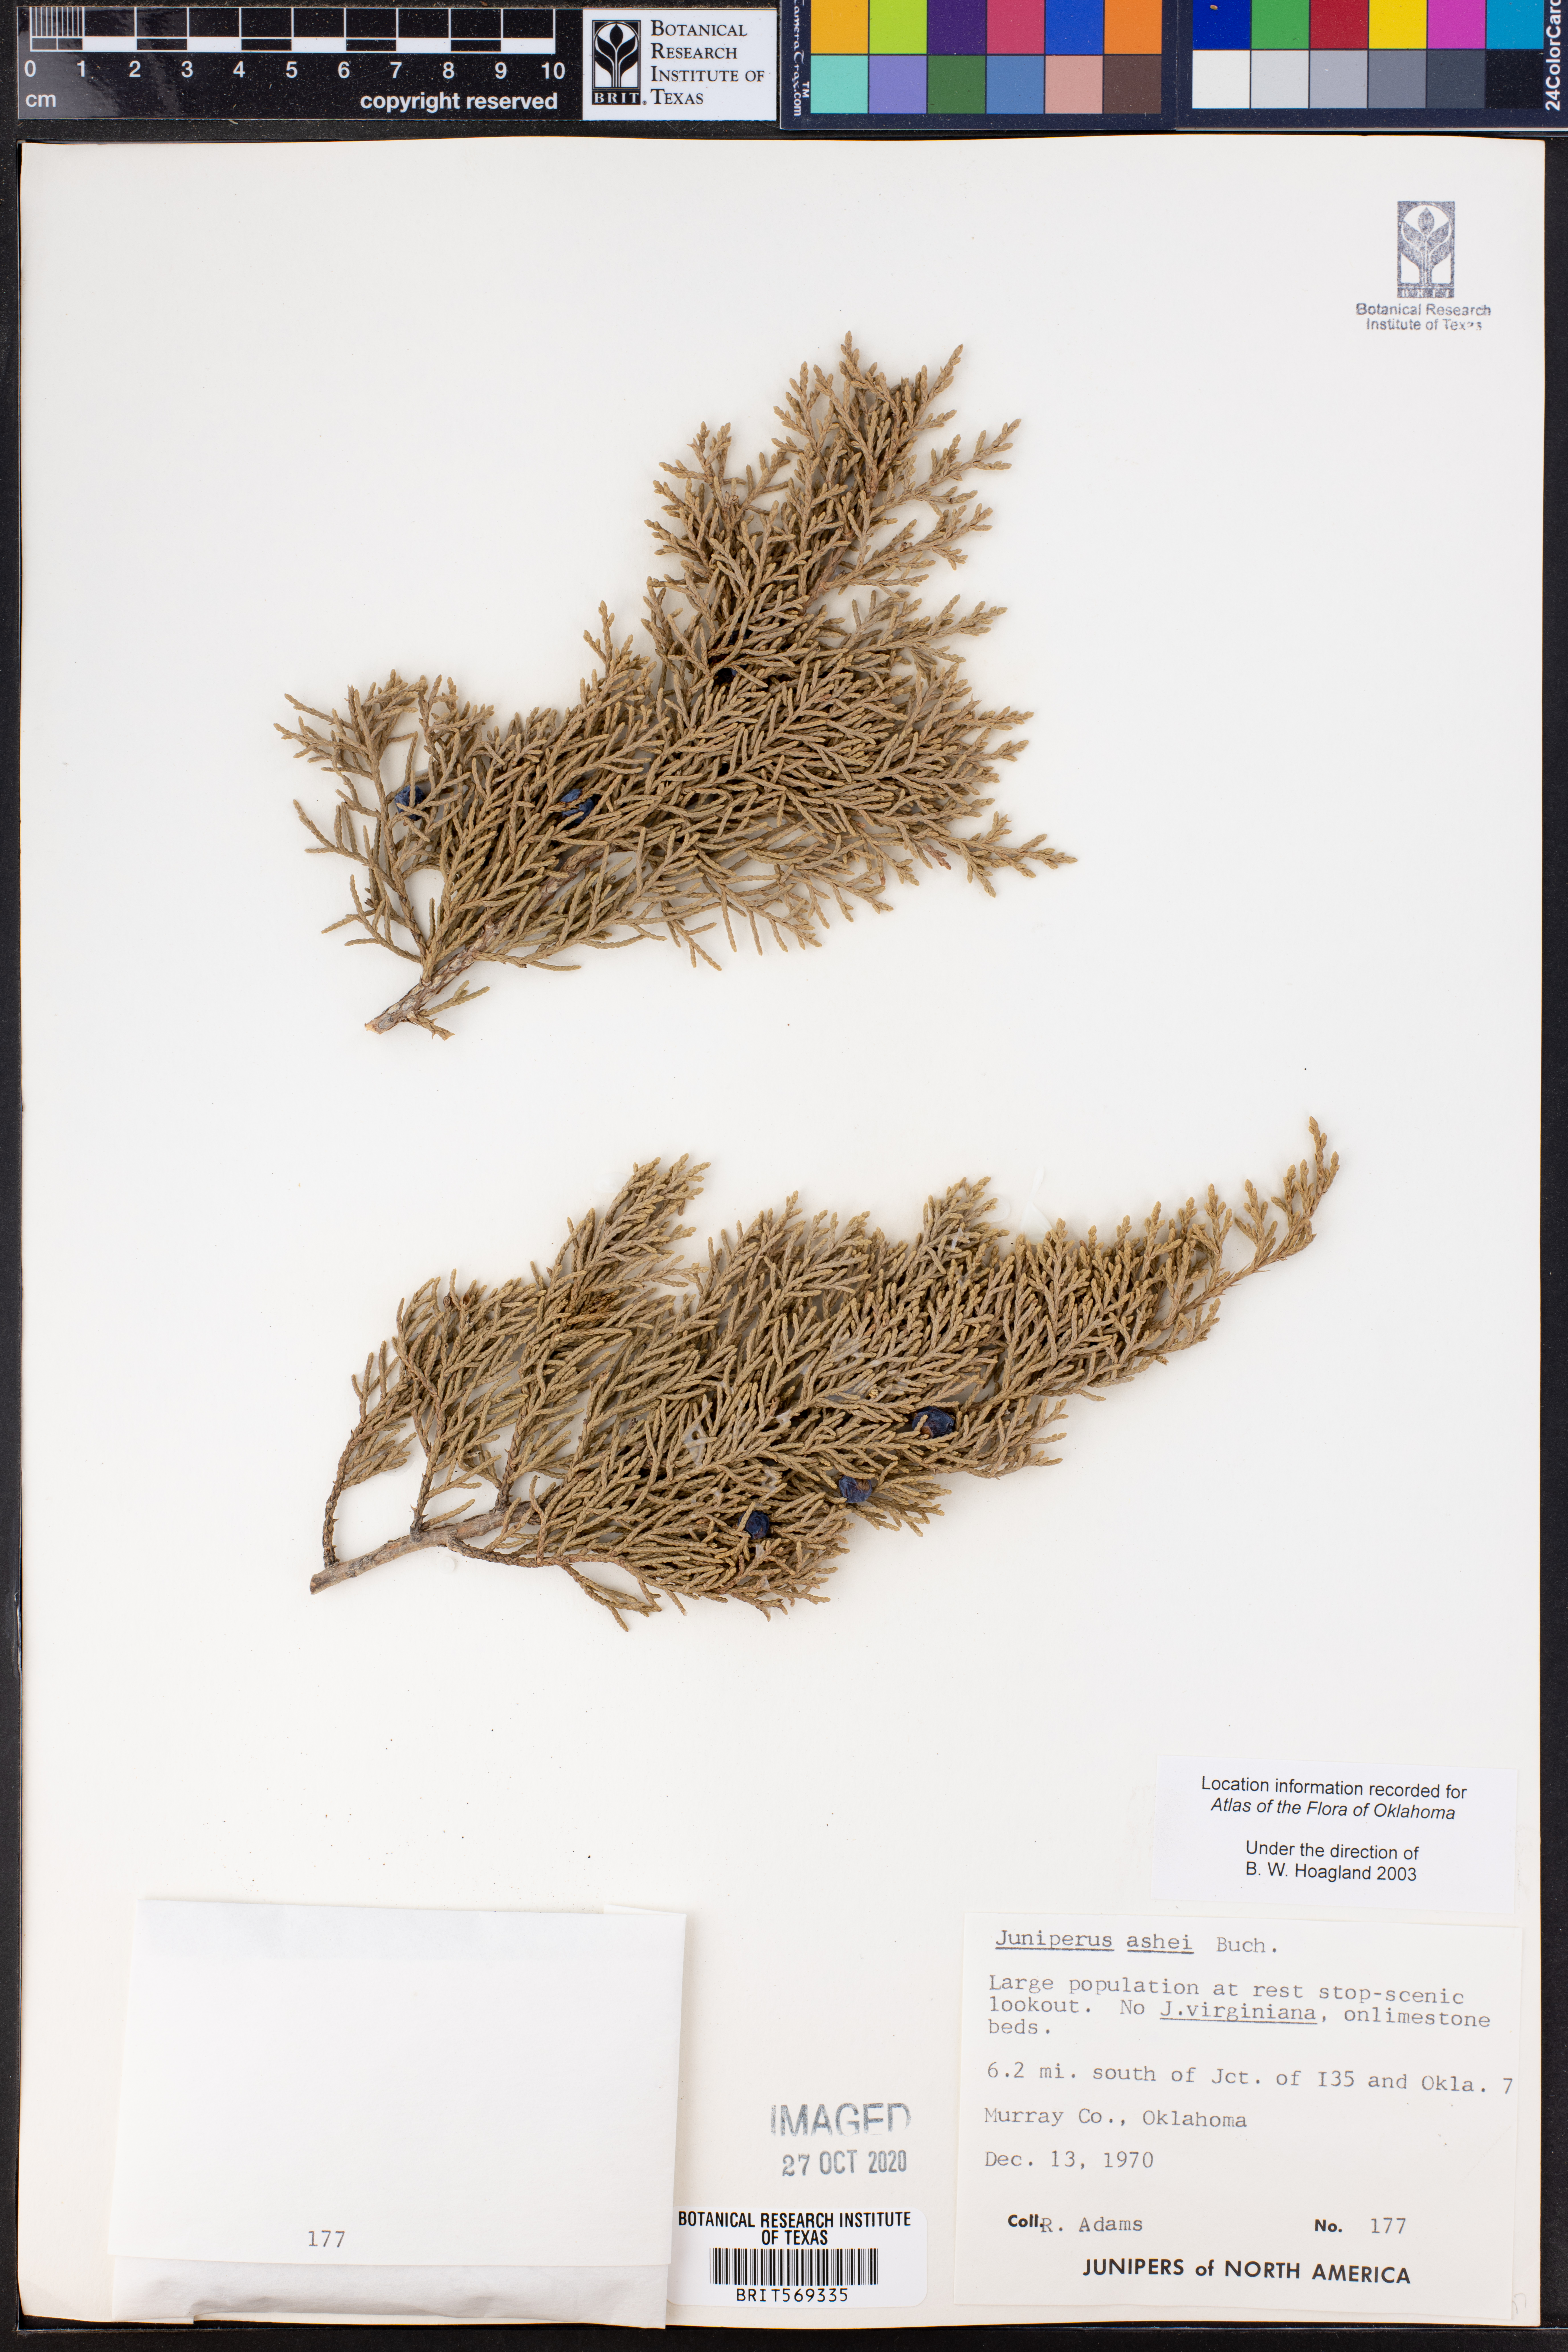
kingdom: Plantae
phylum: Tracheophyta
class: Pinopsida
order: Pinales
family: Cupressaceae
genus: Juniperus
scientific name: Juniperus ashei
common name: Mexican juniper
